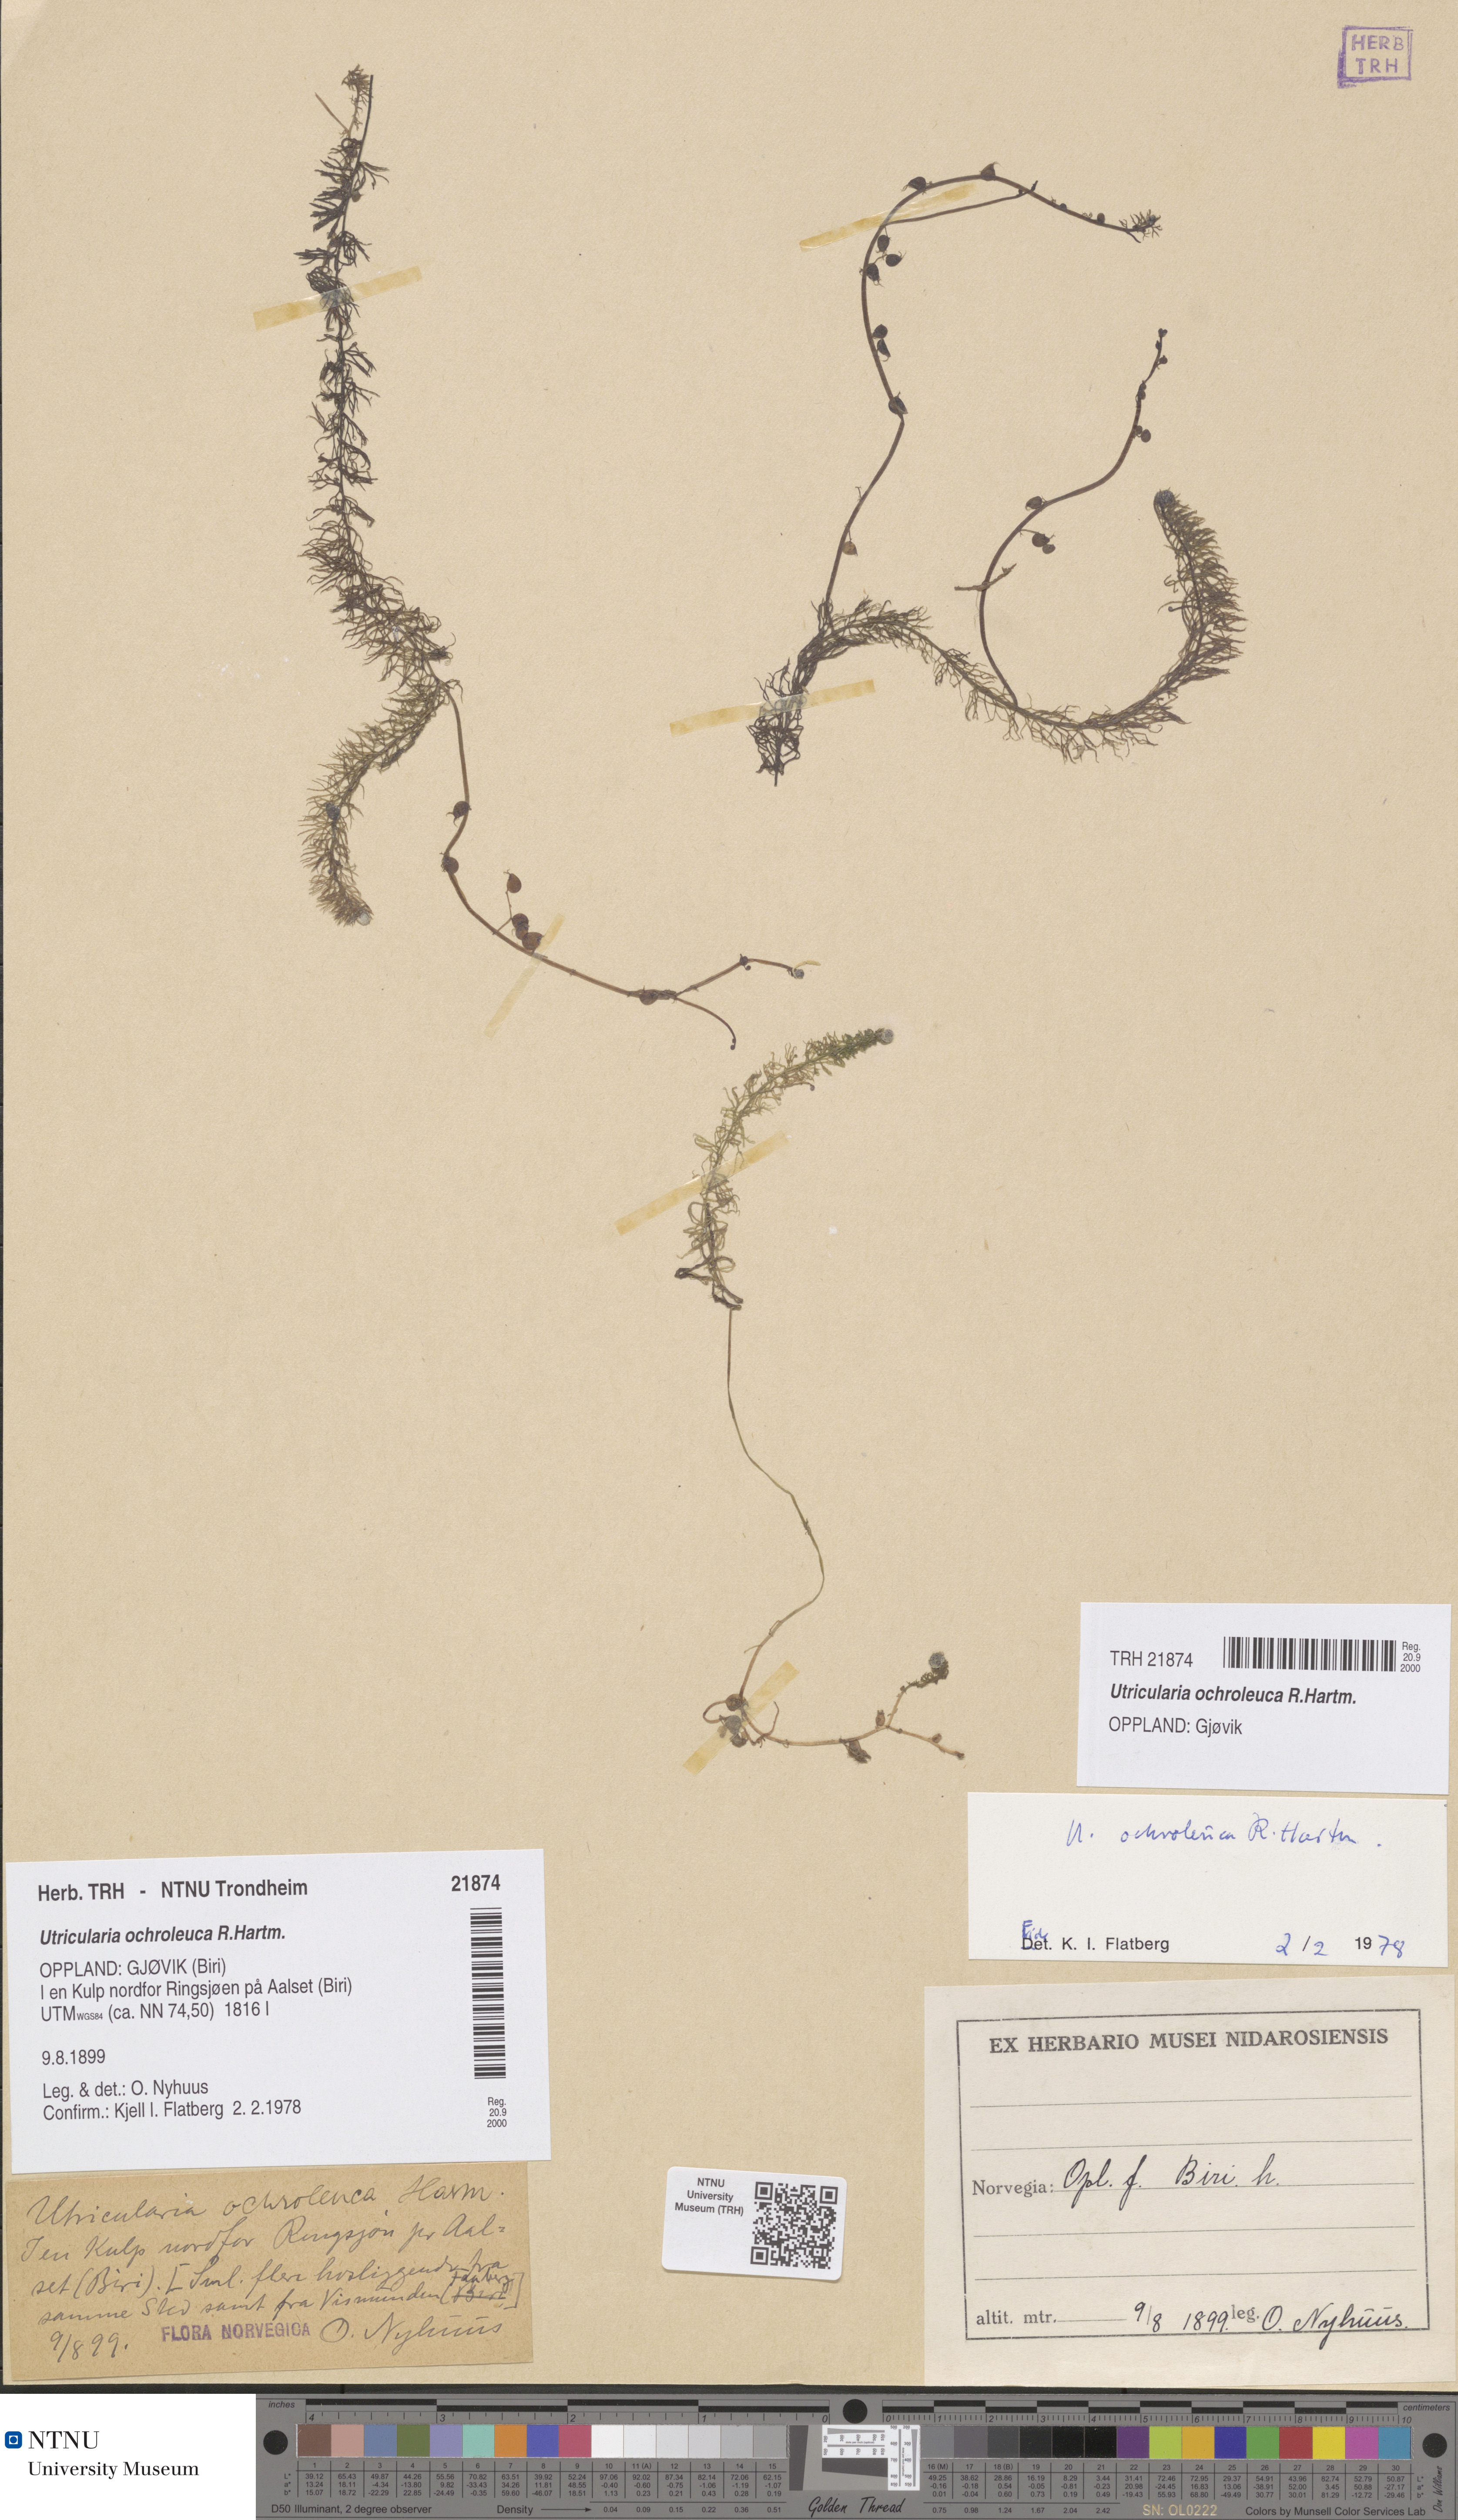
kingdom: Plantae
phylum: Tracheophyta
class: Magnoliopsida
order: Lamiales
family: Lentibulariaceae
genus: Utricularia
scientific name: Utricularia ochroleuca
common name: Pale bladderwort
